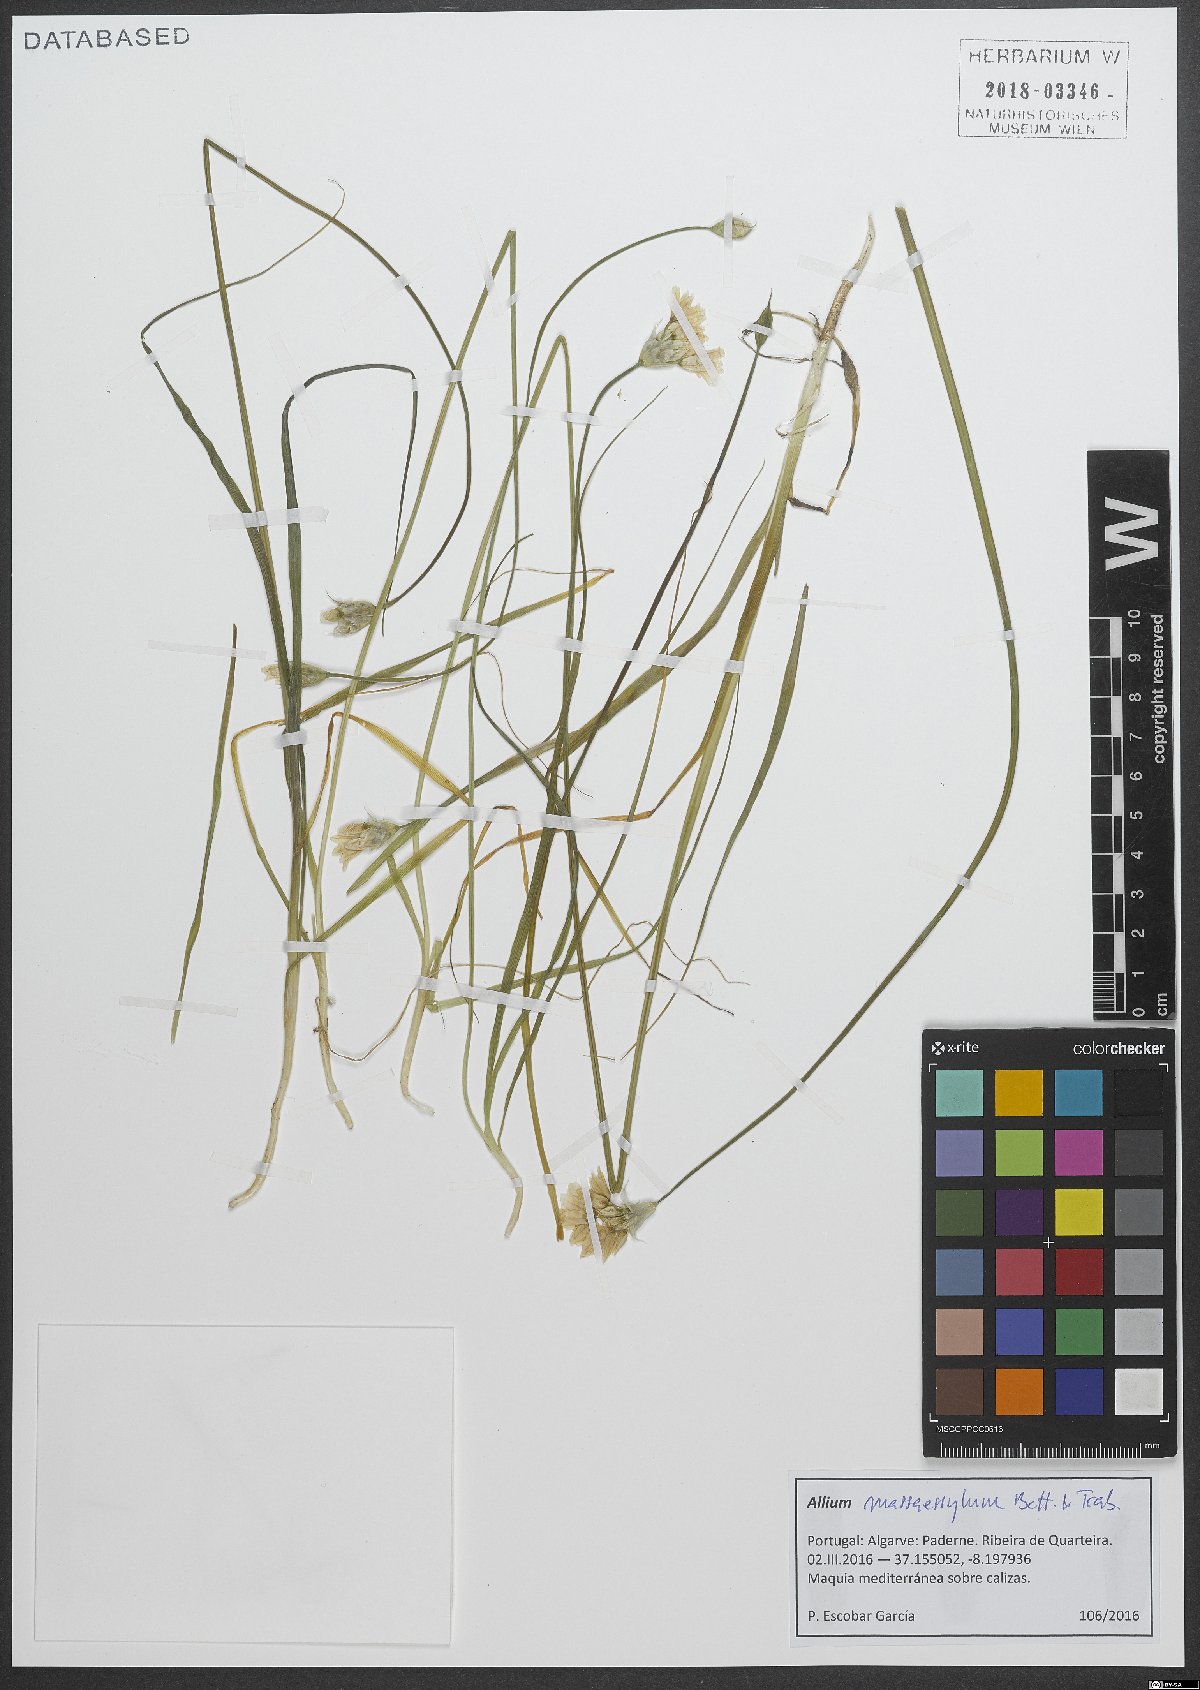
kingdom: Plantae
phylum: Tracheophyta
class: Liliopsida
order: Asparagales
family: Amaryllidaceae
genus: Allium
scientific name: Allium massaessylum
